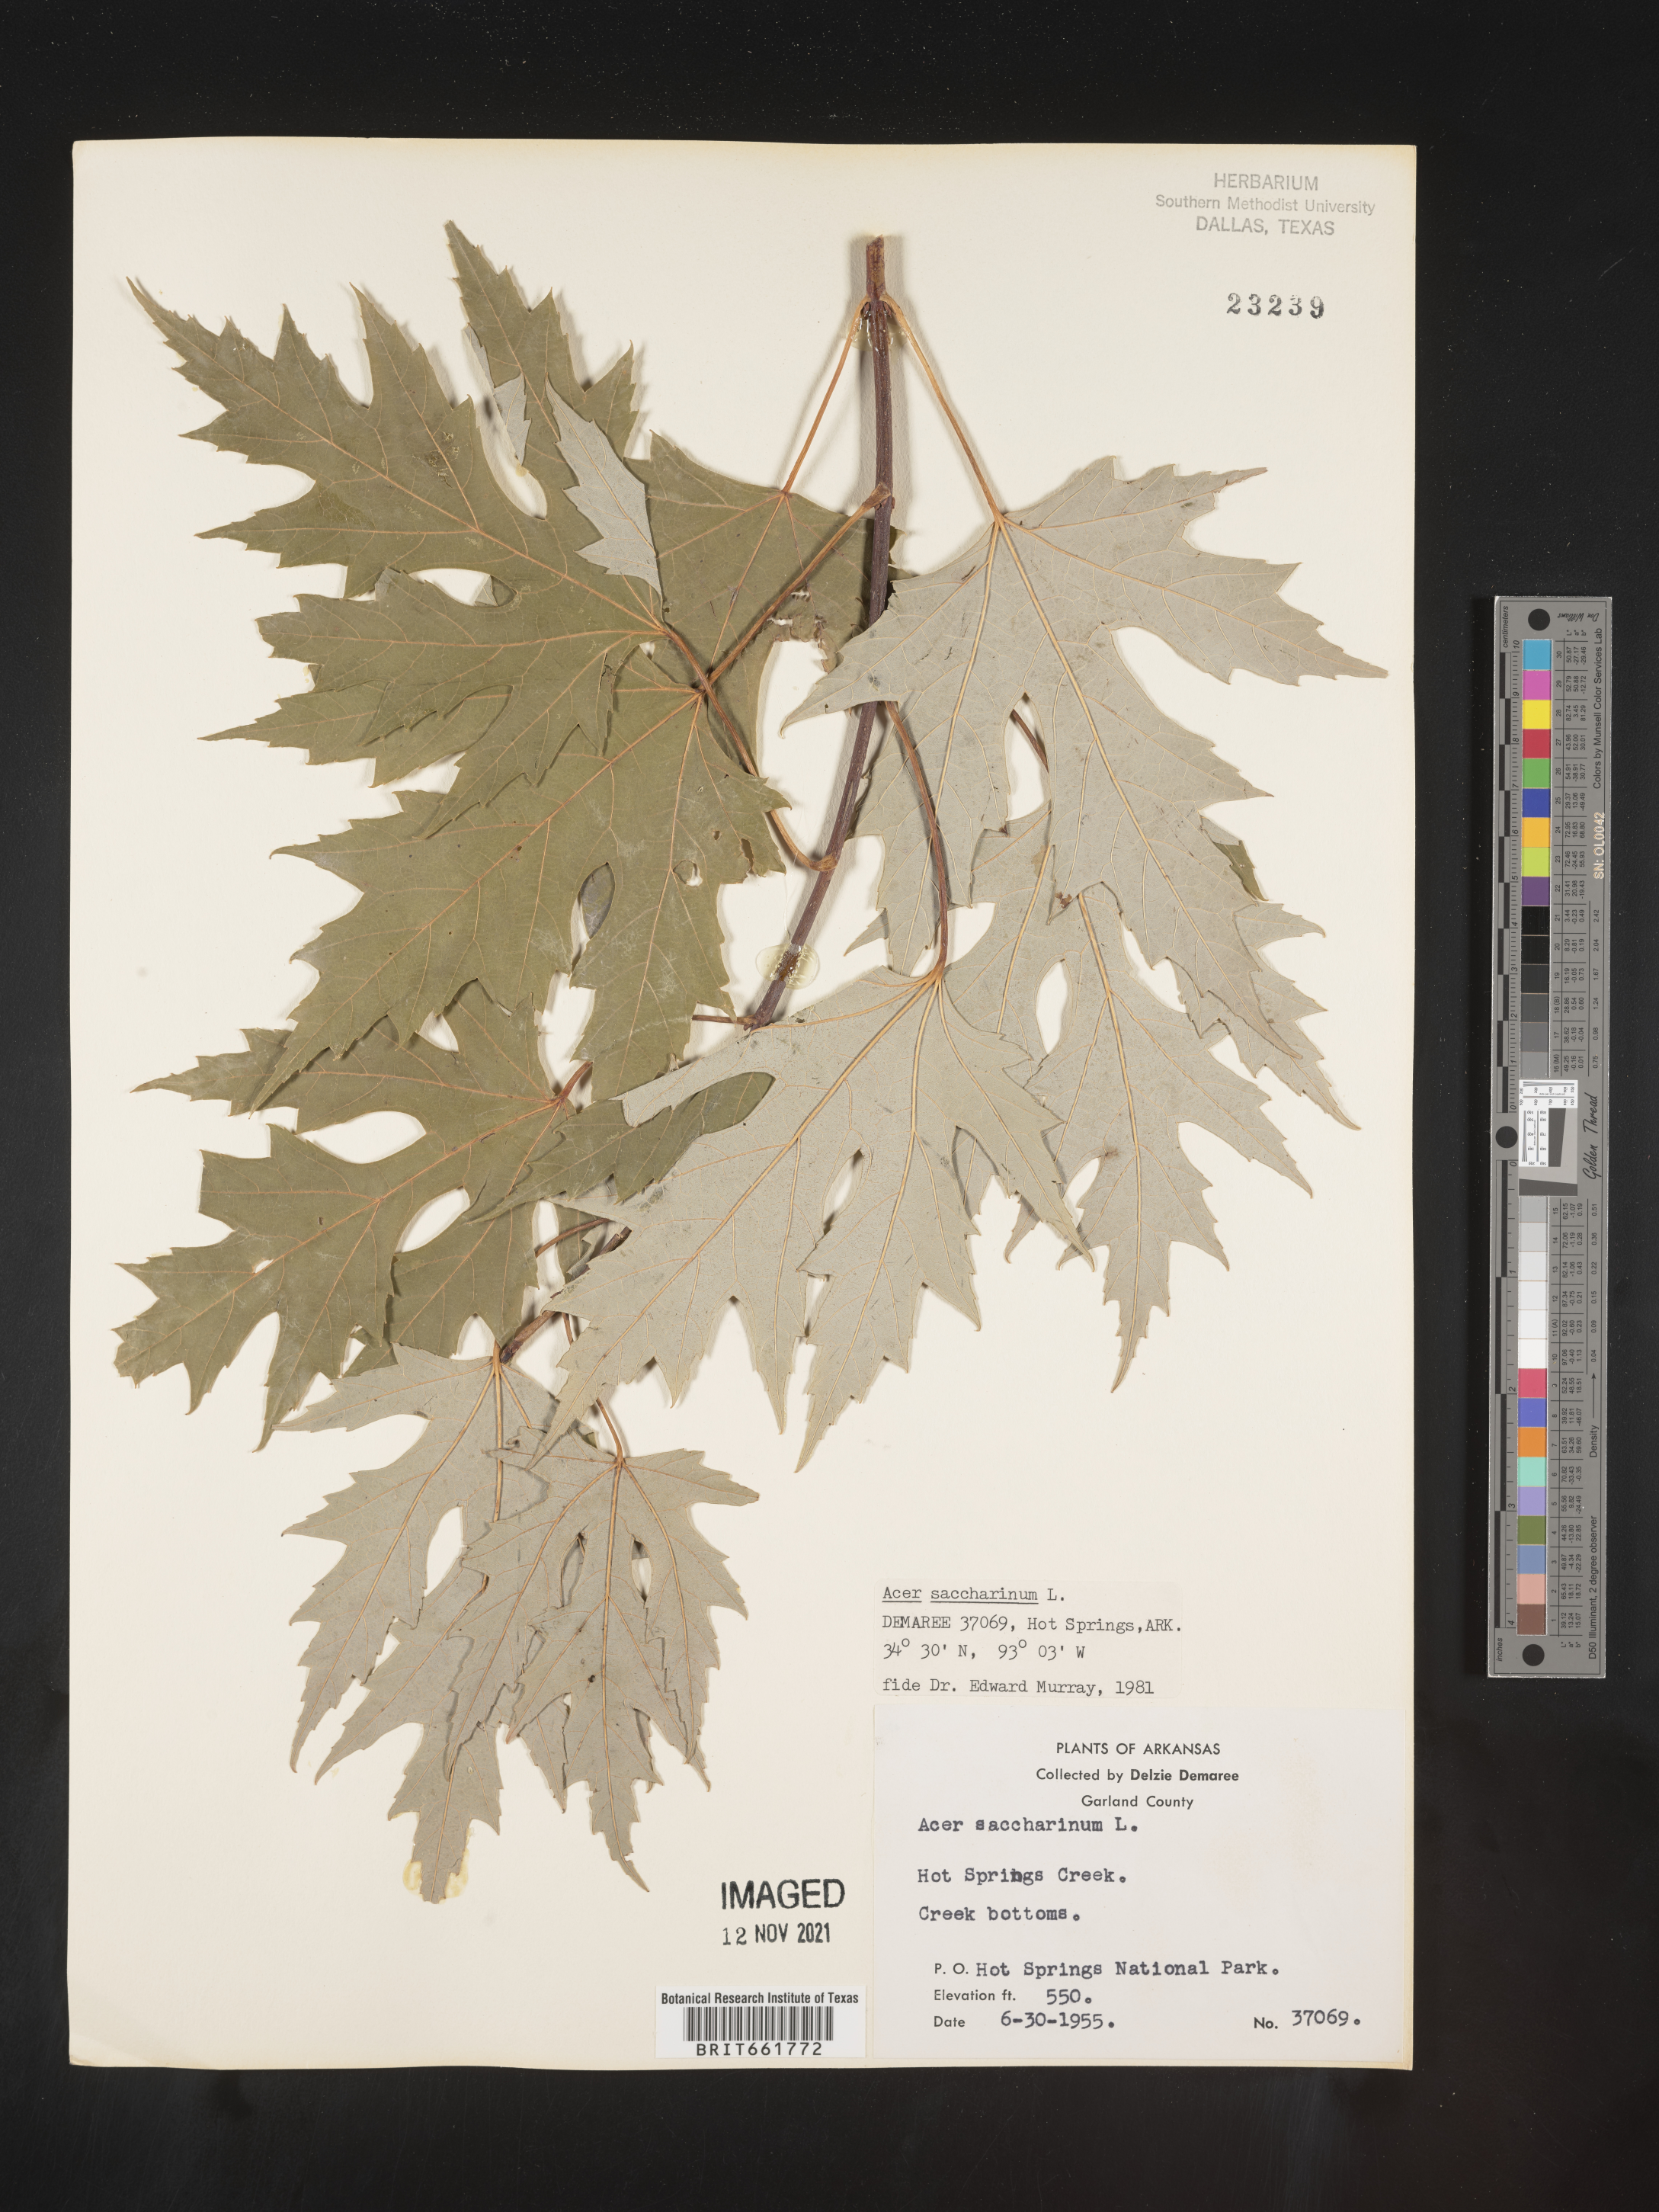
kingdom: Plantae
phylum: Tracheophyta
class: Magnoliopsida
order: Sapindales
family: Sapindaceae
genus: Acer
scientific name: Acer saccharinum
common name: Silver maple
